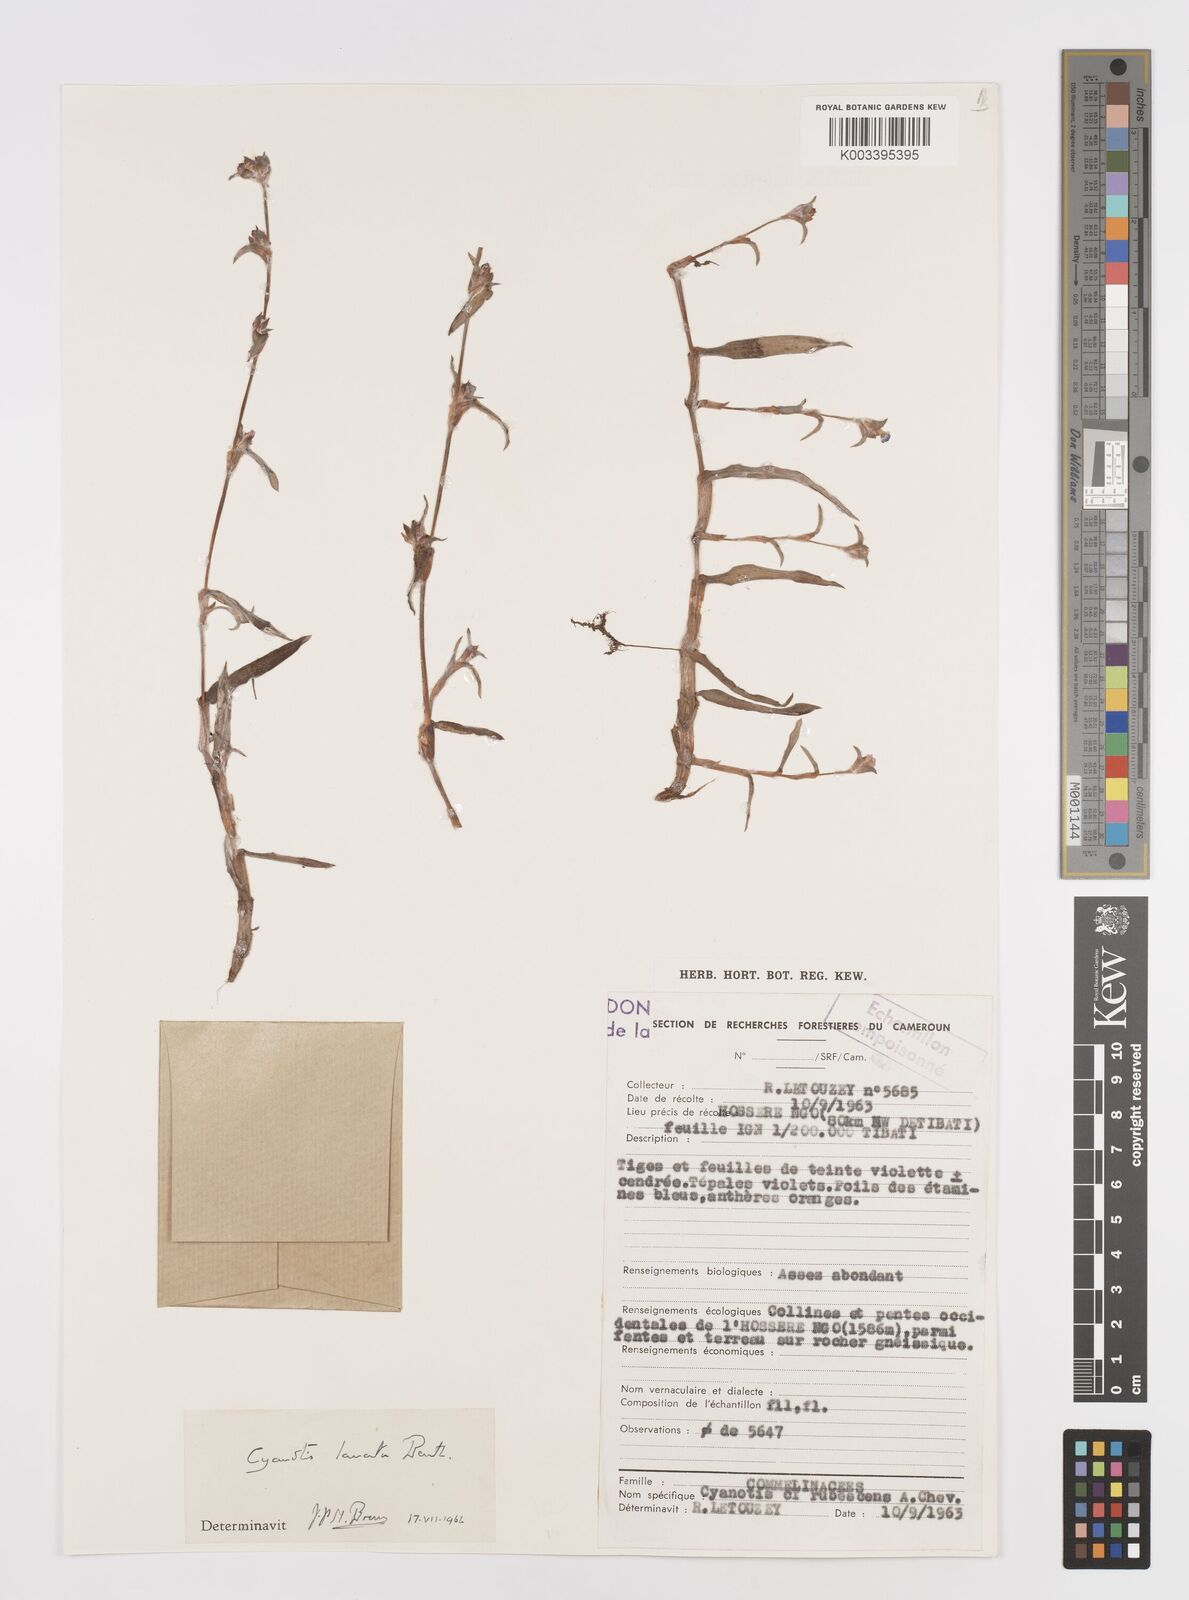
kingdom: Plantae
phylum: Tracheophyta
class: Liliopsida
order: Commelinales
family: Commelinaceae
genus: Cyanotis
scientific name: Cyanotis lanata
